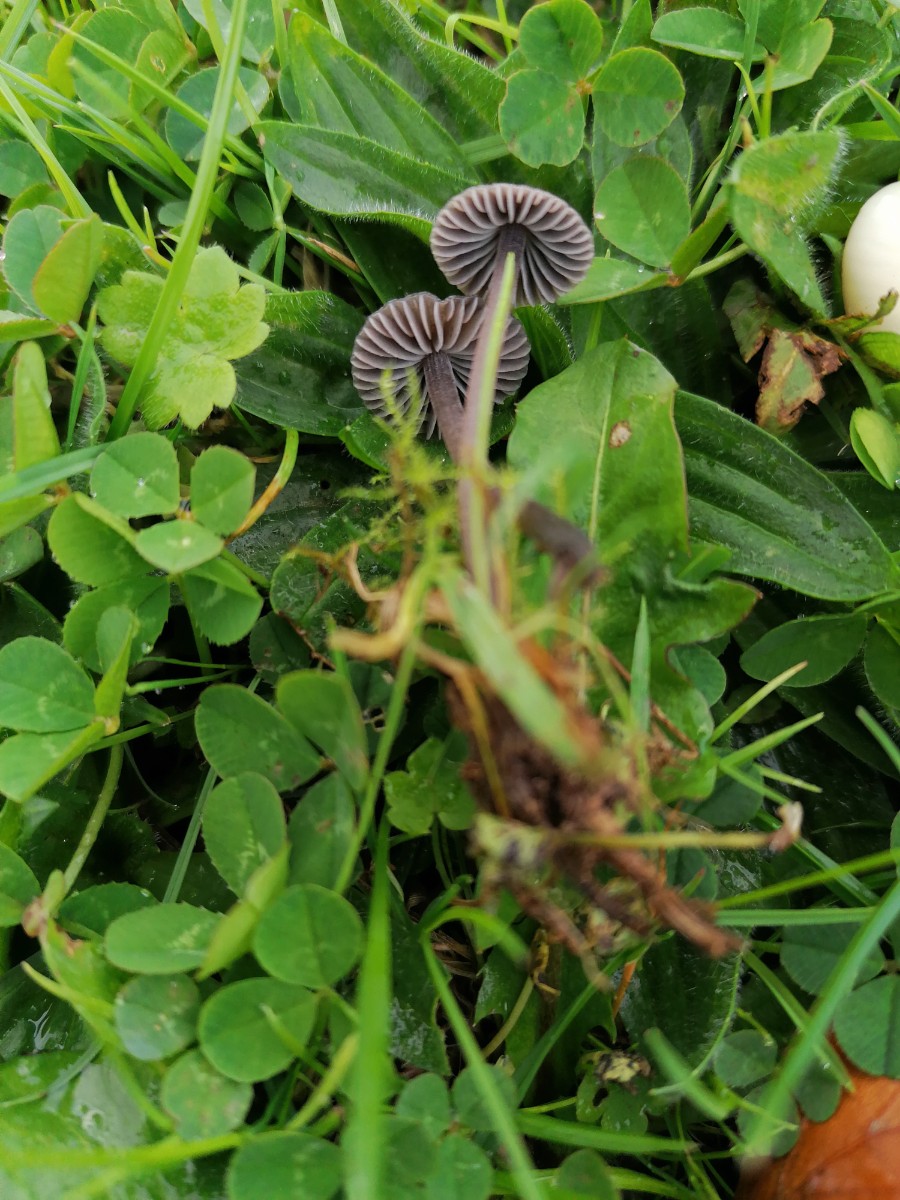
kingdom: Fungi
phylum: Basidiomycota
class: Agaricomycetes
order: Agaricales
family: Mycenaceae
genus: Mycena
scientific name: Mycena
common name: huesvamp
